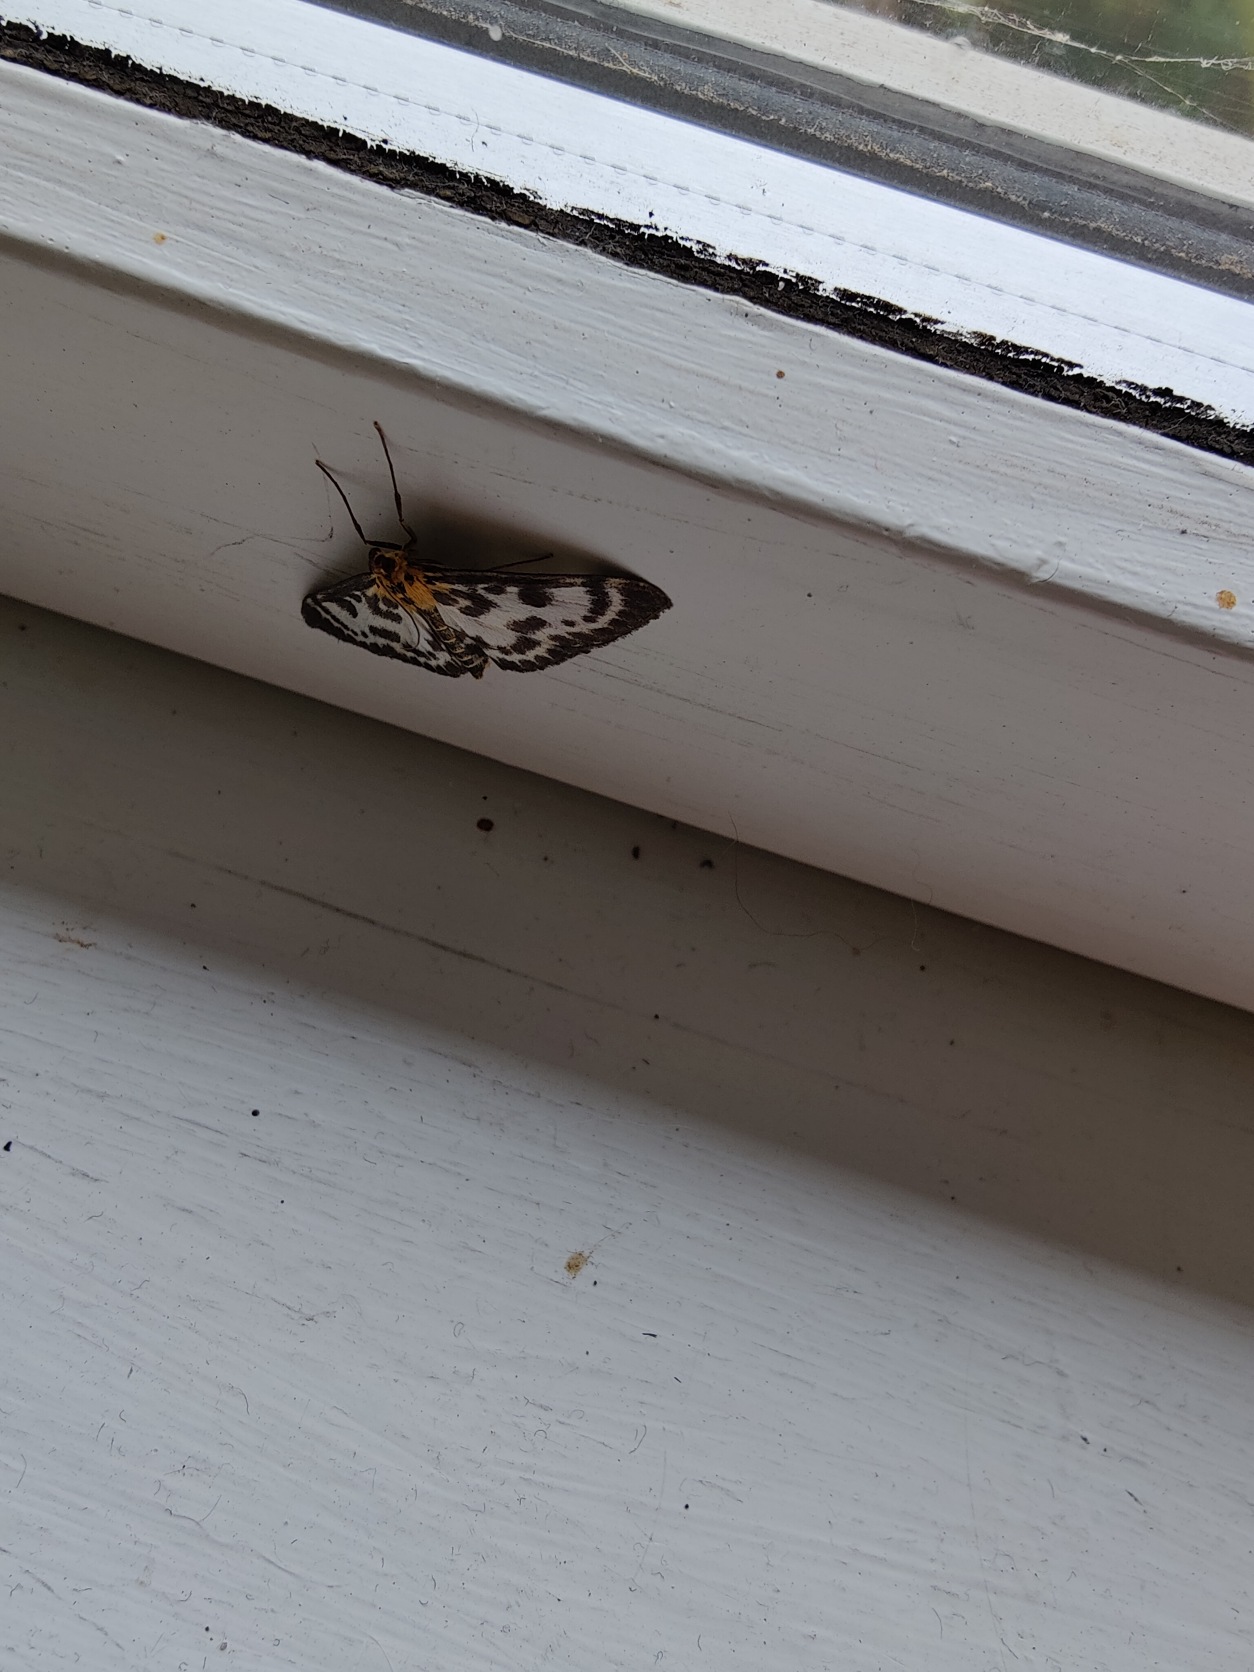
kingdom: Animalia
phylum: Arthropoda
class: Insecta
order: Lepidoptera
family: Crambidae
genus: Anania
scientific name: Anania hortulata
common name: Nældehalvmøl
